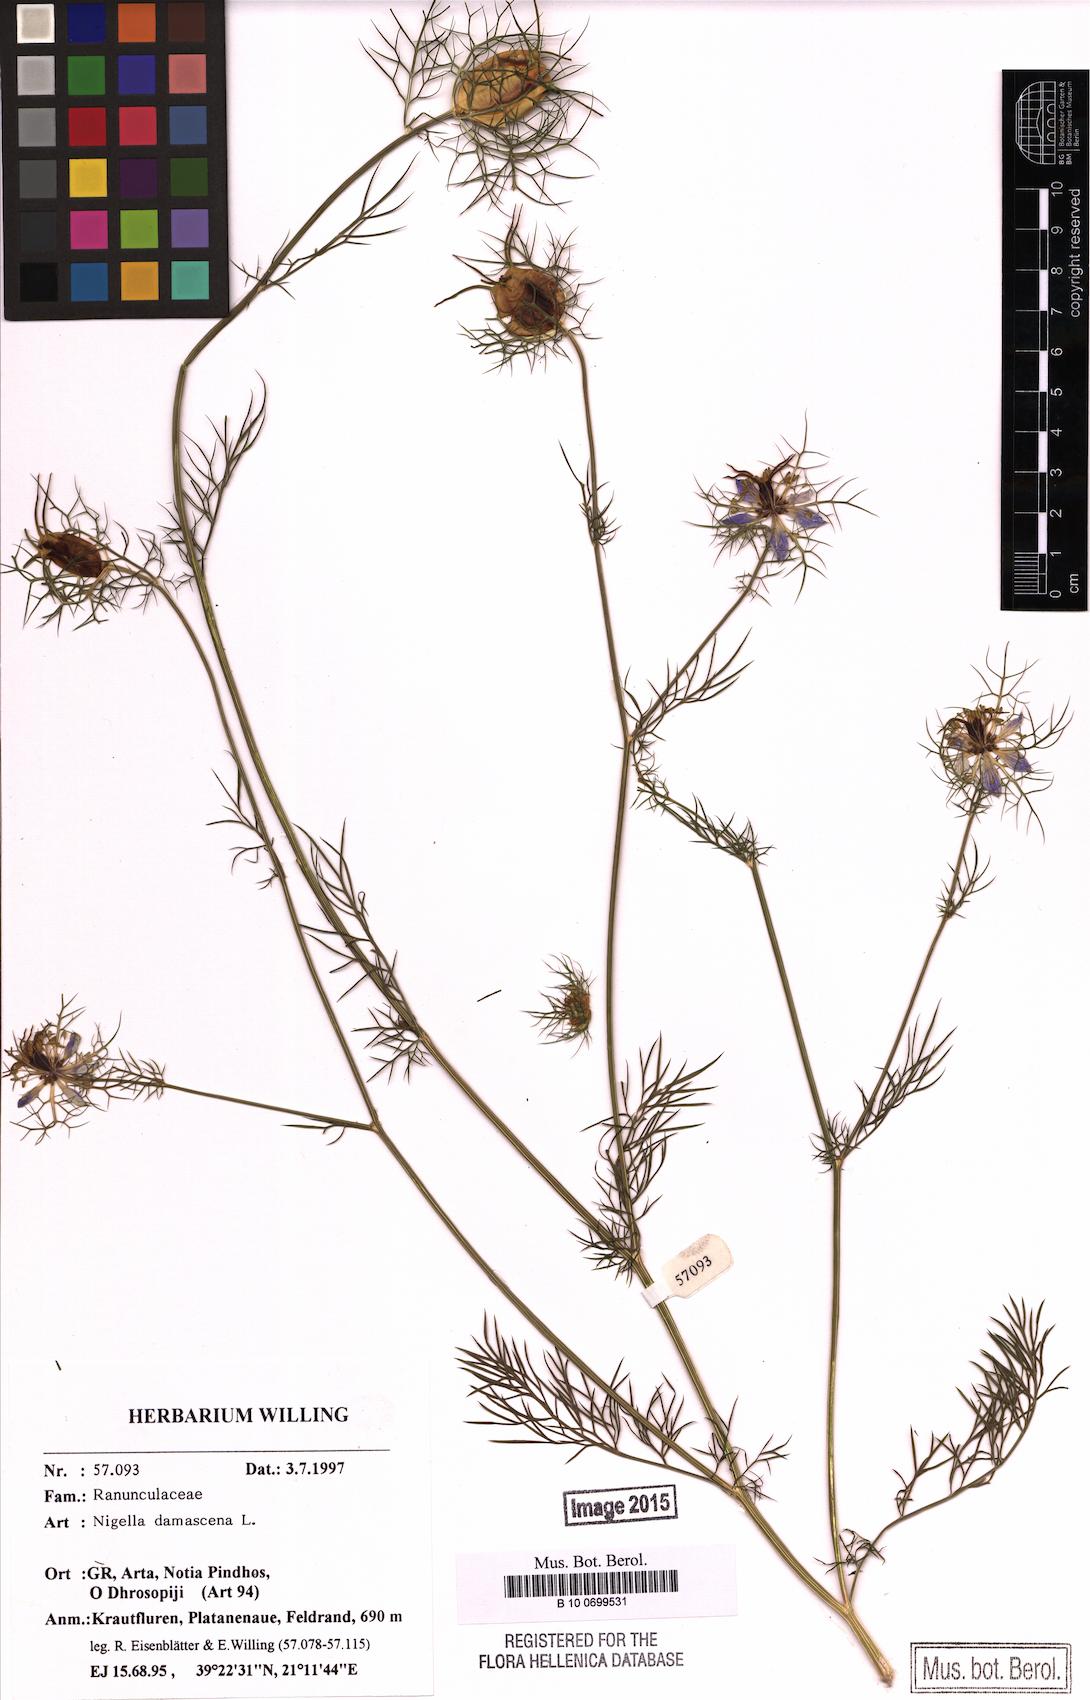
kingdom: Plantae
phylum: Tracheophyta
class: Magnoliopsida
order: Ranunculales
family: Ranunculaceae
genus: Nigella
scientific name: Nigella damascena
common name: Love-in-a-mist
